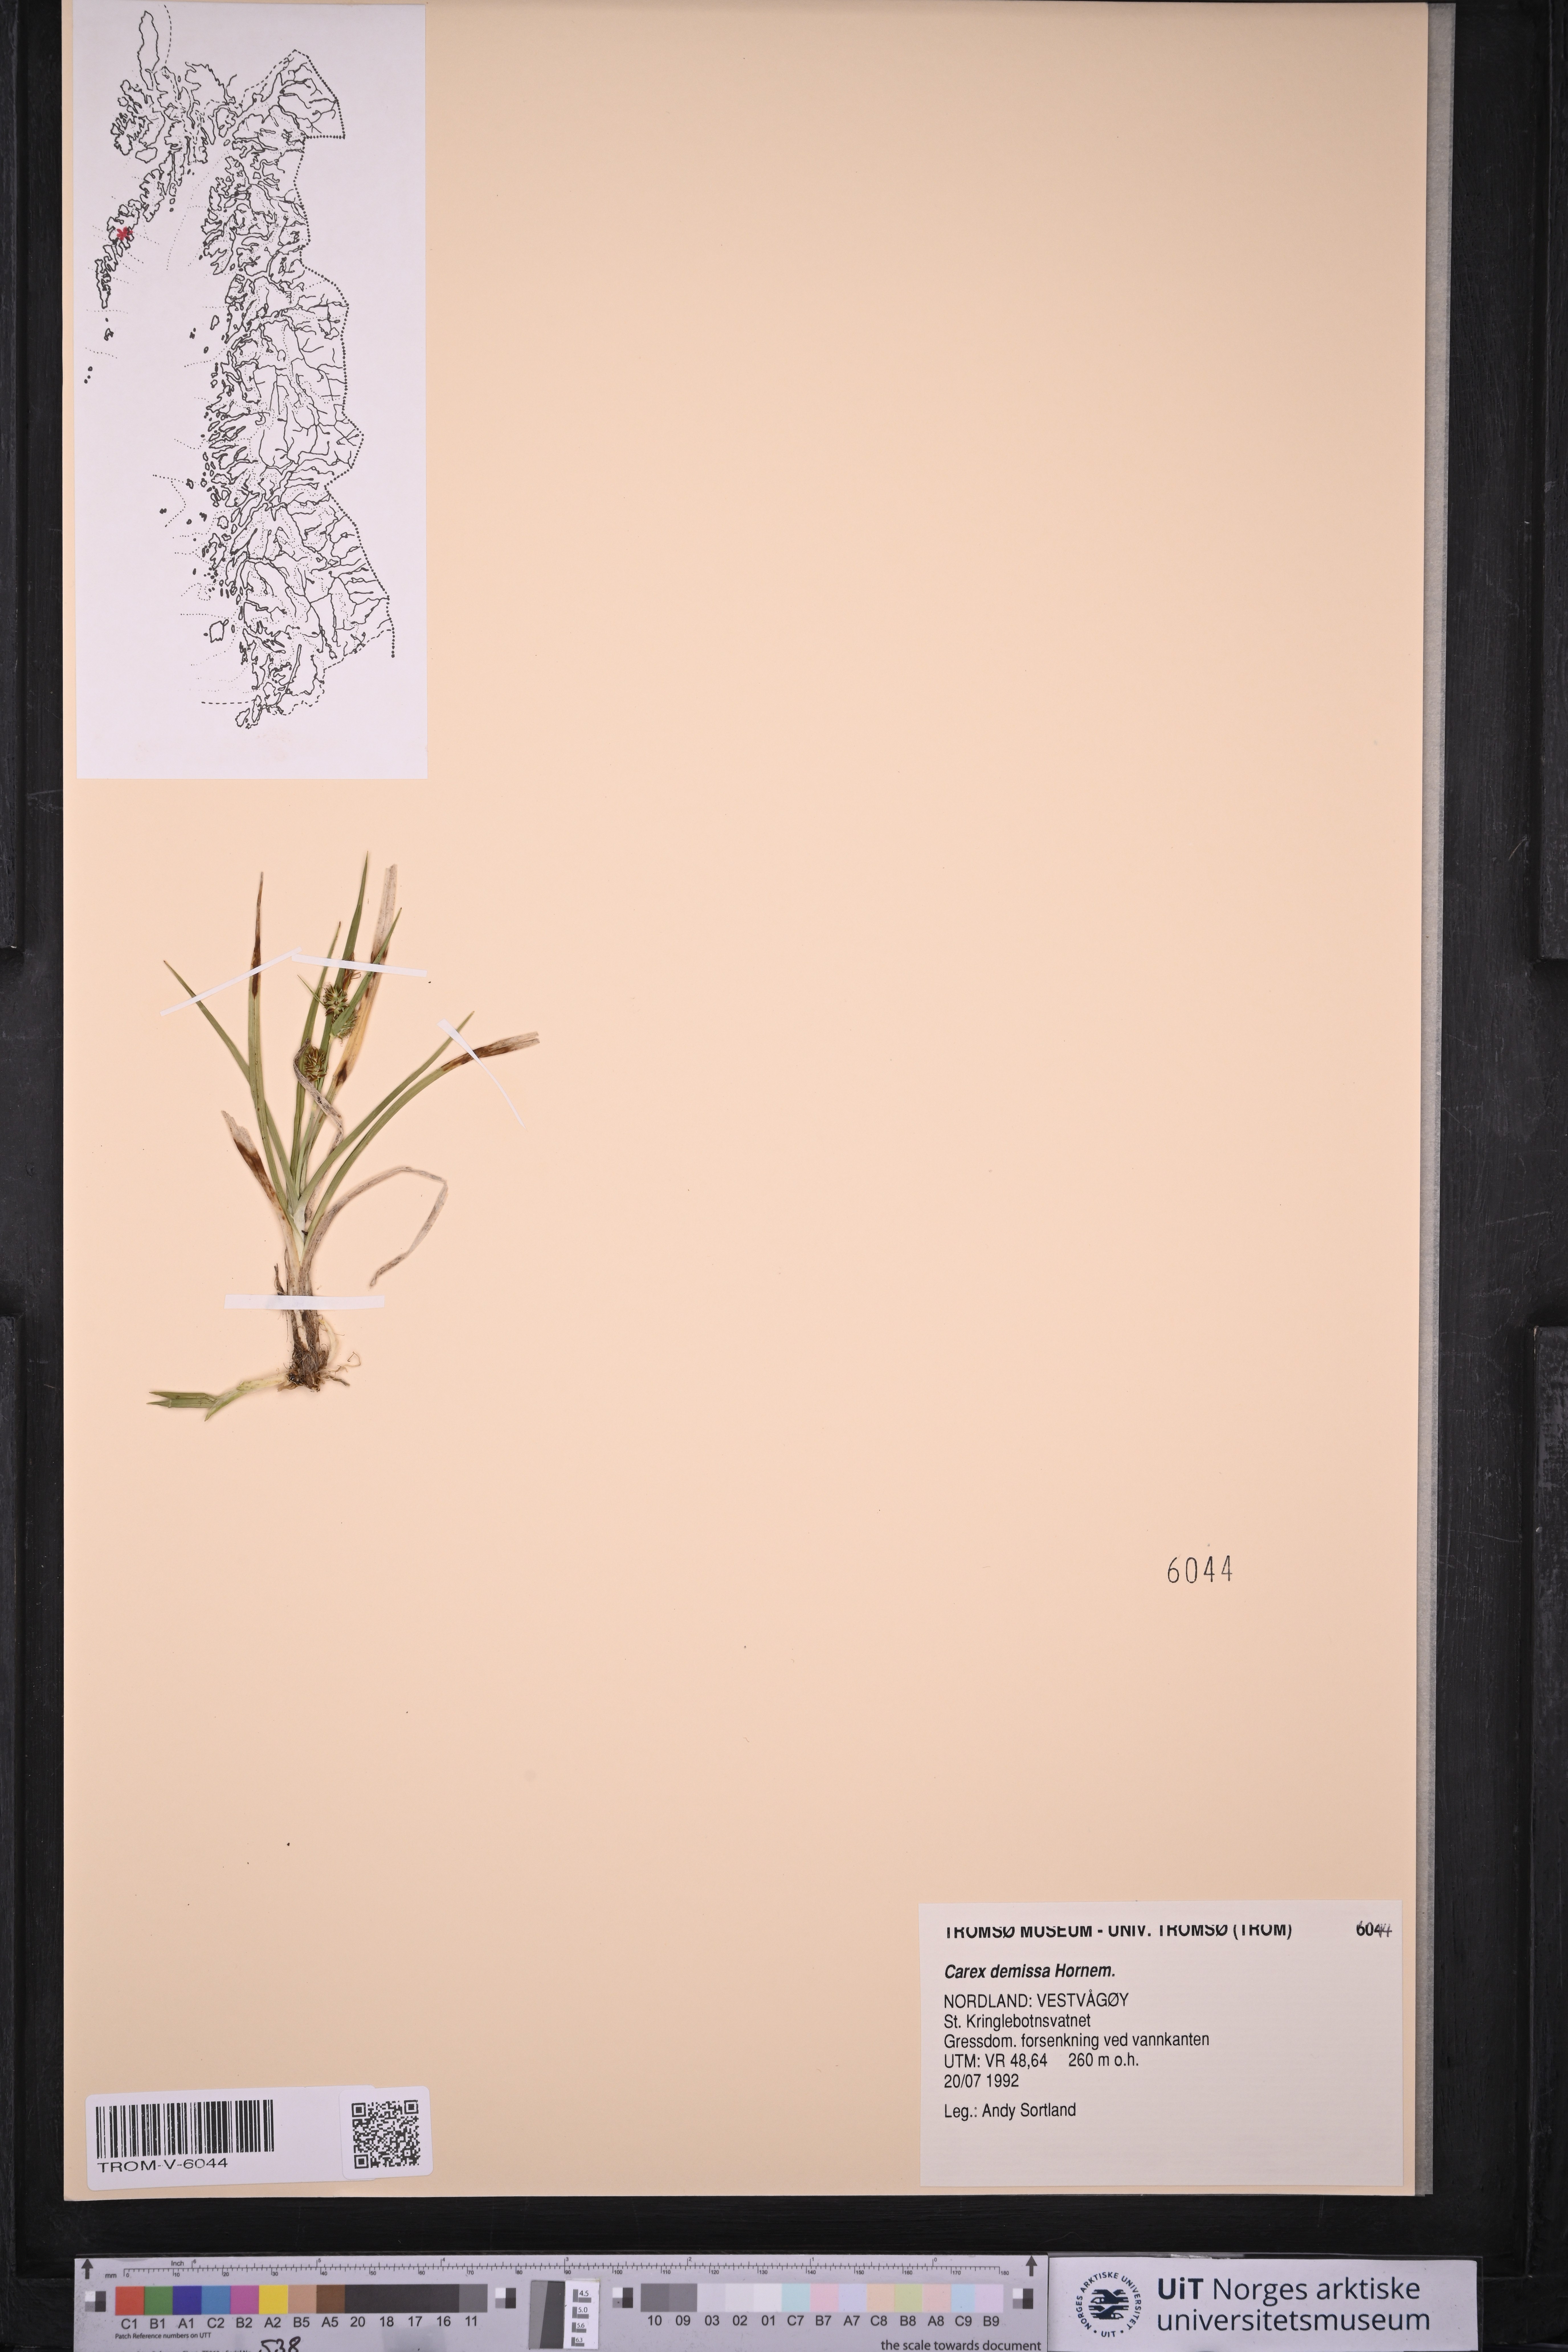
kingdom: Plantae
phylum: Tracheophyta
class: Liliopsida
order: Poales
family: Cyperaceae
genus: Carex
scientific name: Carex demissa
